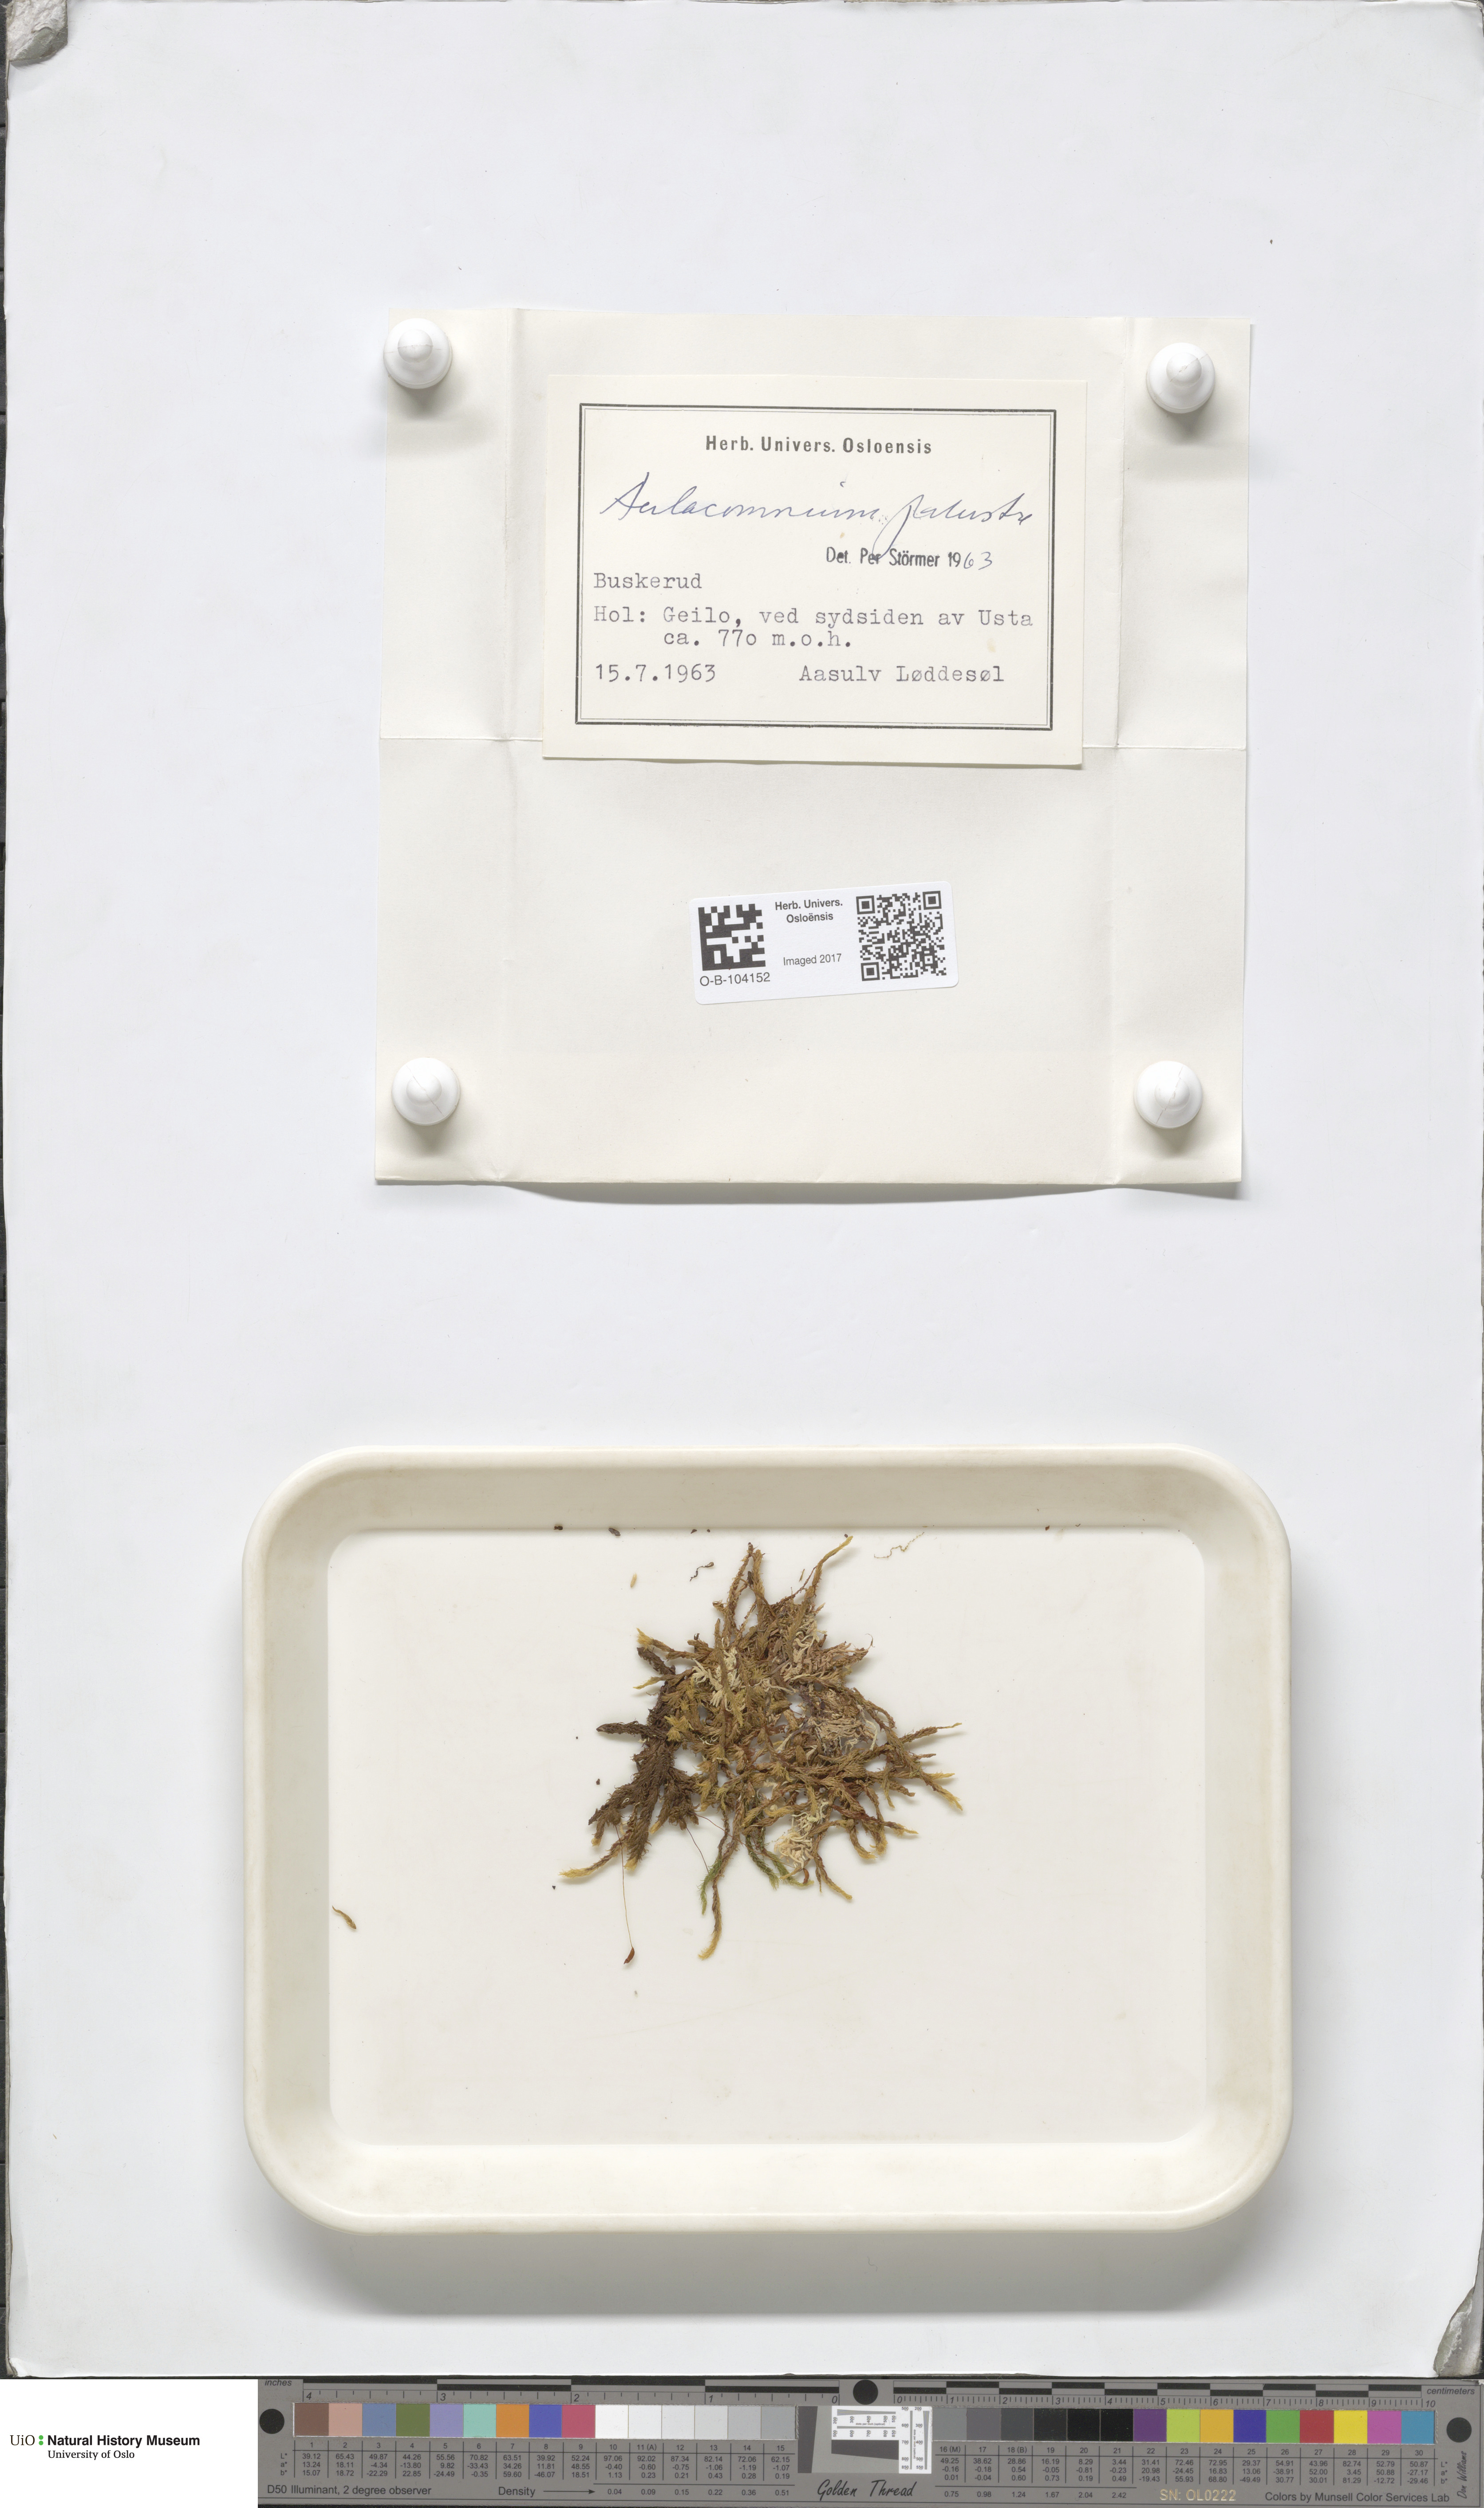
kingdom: Plantae
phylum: Bryophyta
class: Bryopsida
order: Aulacomniales
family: Aulacomniaceae
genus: Aulacomnium
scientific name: Aulacomnium palustre
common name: Bog groove-moss
